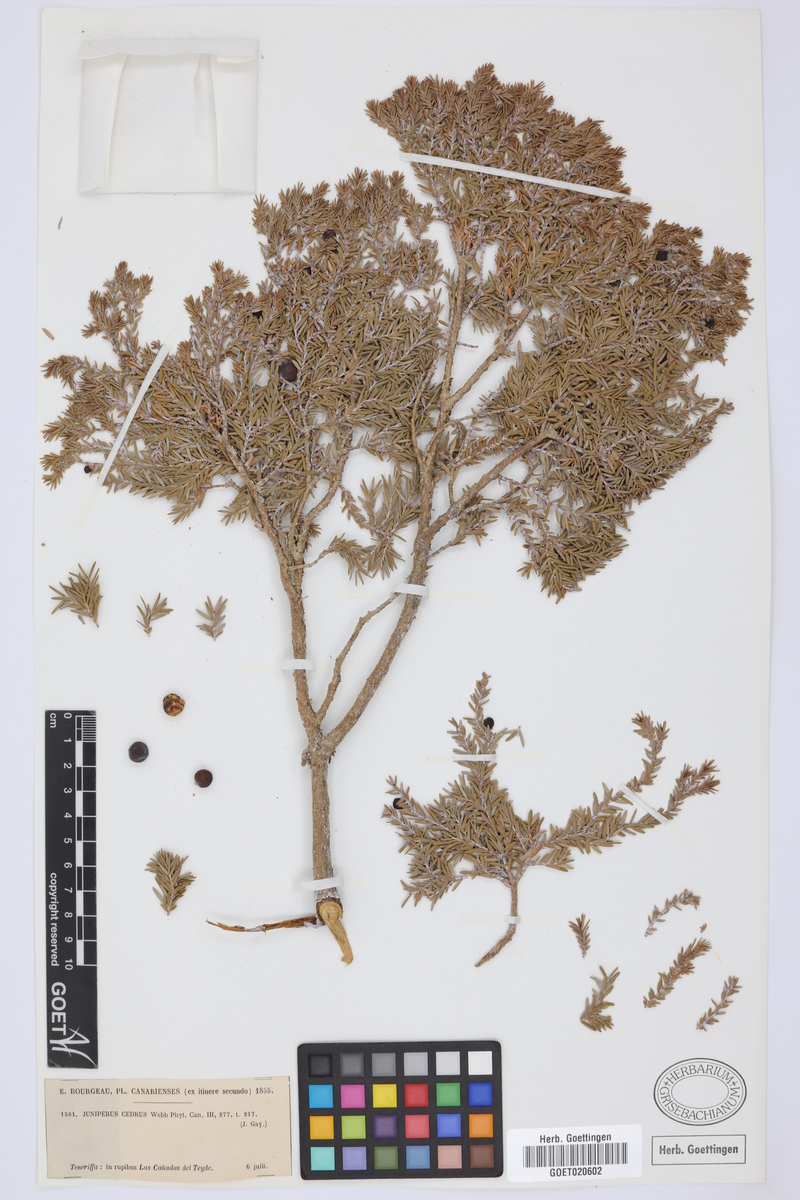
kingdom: Plantae
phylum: Tracheophyta
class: Pinopsida
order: Pinales
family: Cupressaceae
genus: Juniperus
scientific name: Juniperus cedrus
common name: Canary islands juniper
